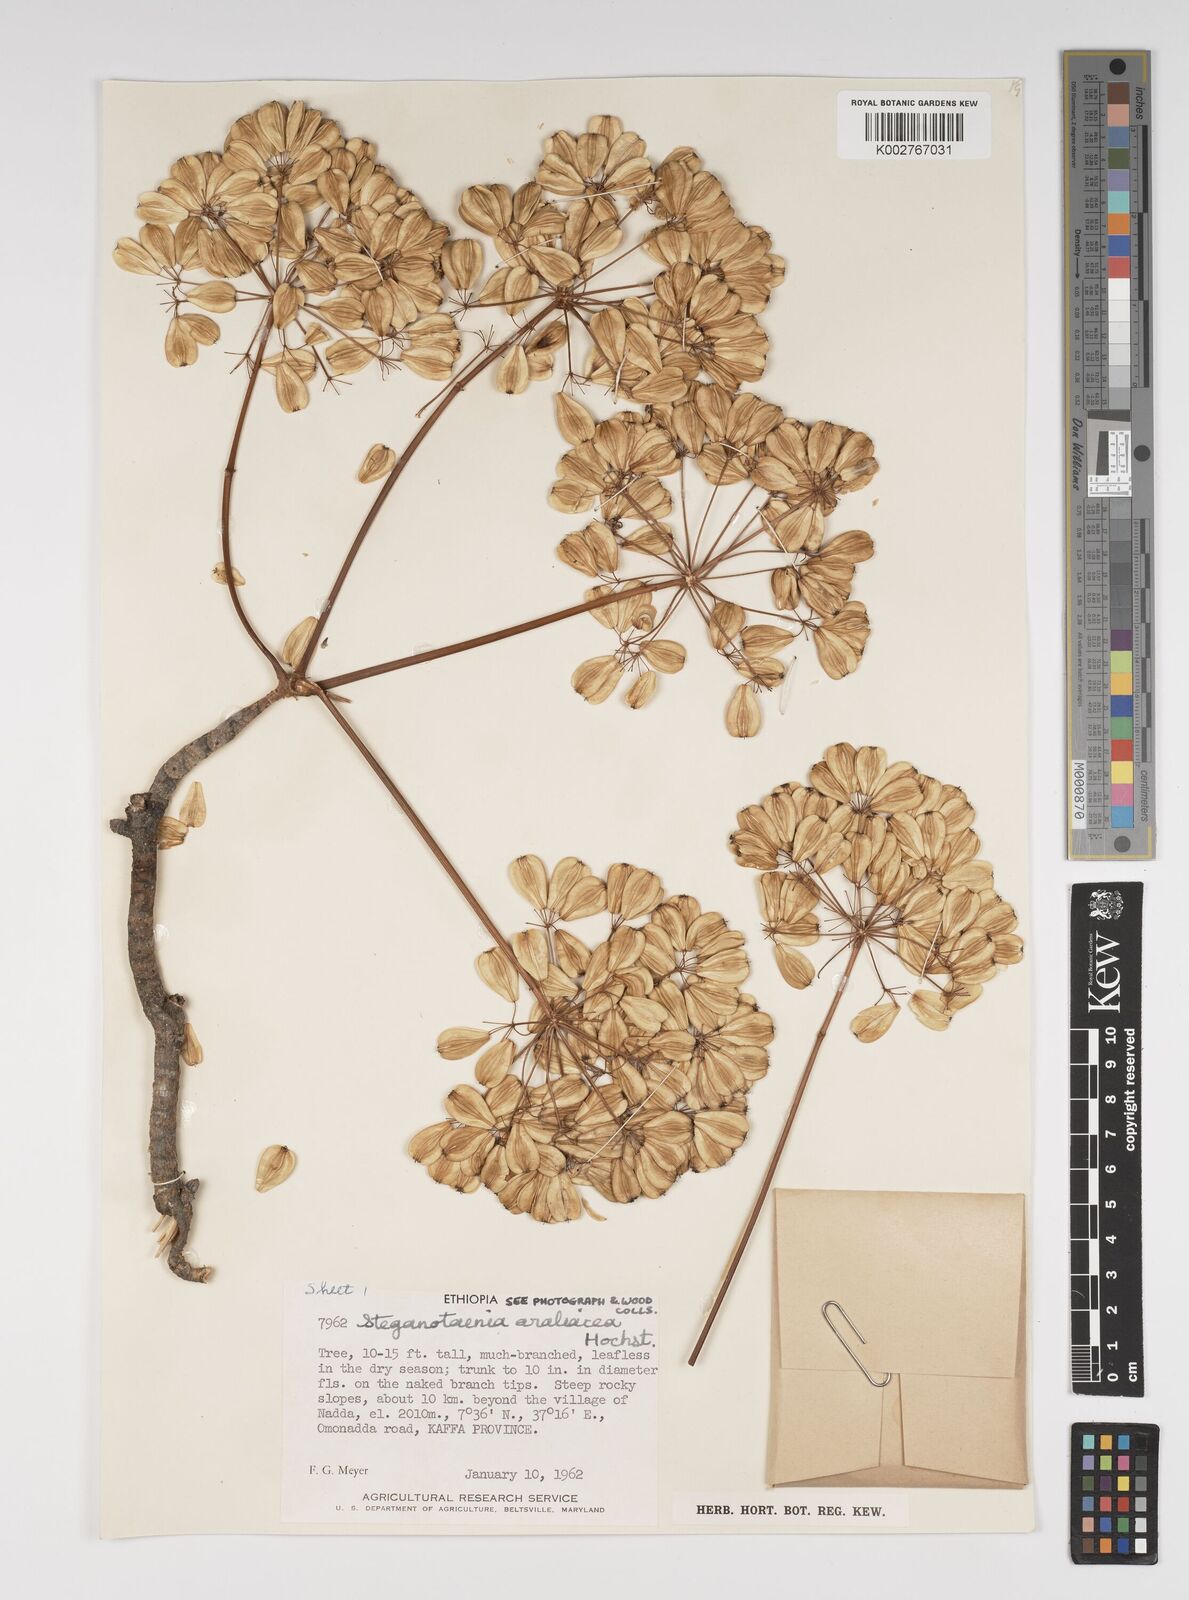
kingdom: Plantae
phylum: Tracheophyta
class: Magnoliopsida
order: Apiales
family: Apiaceae
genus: Steganotaenia
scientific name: Steganotaenia araliacea
